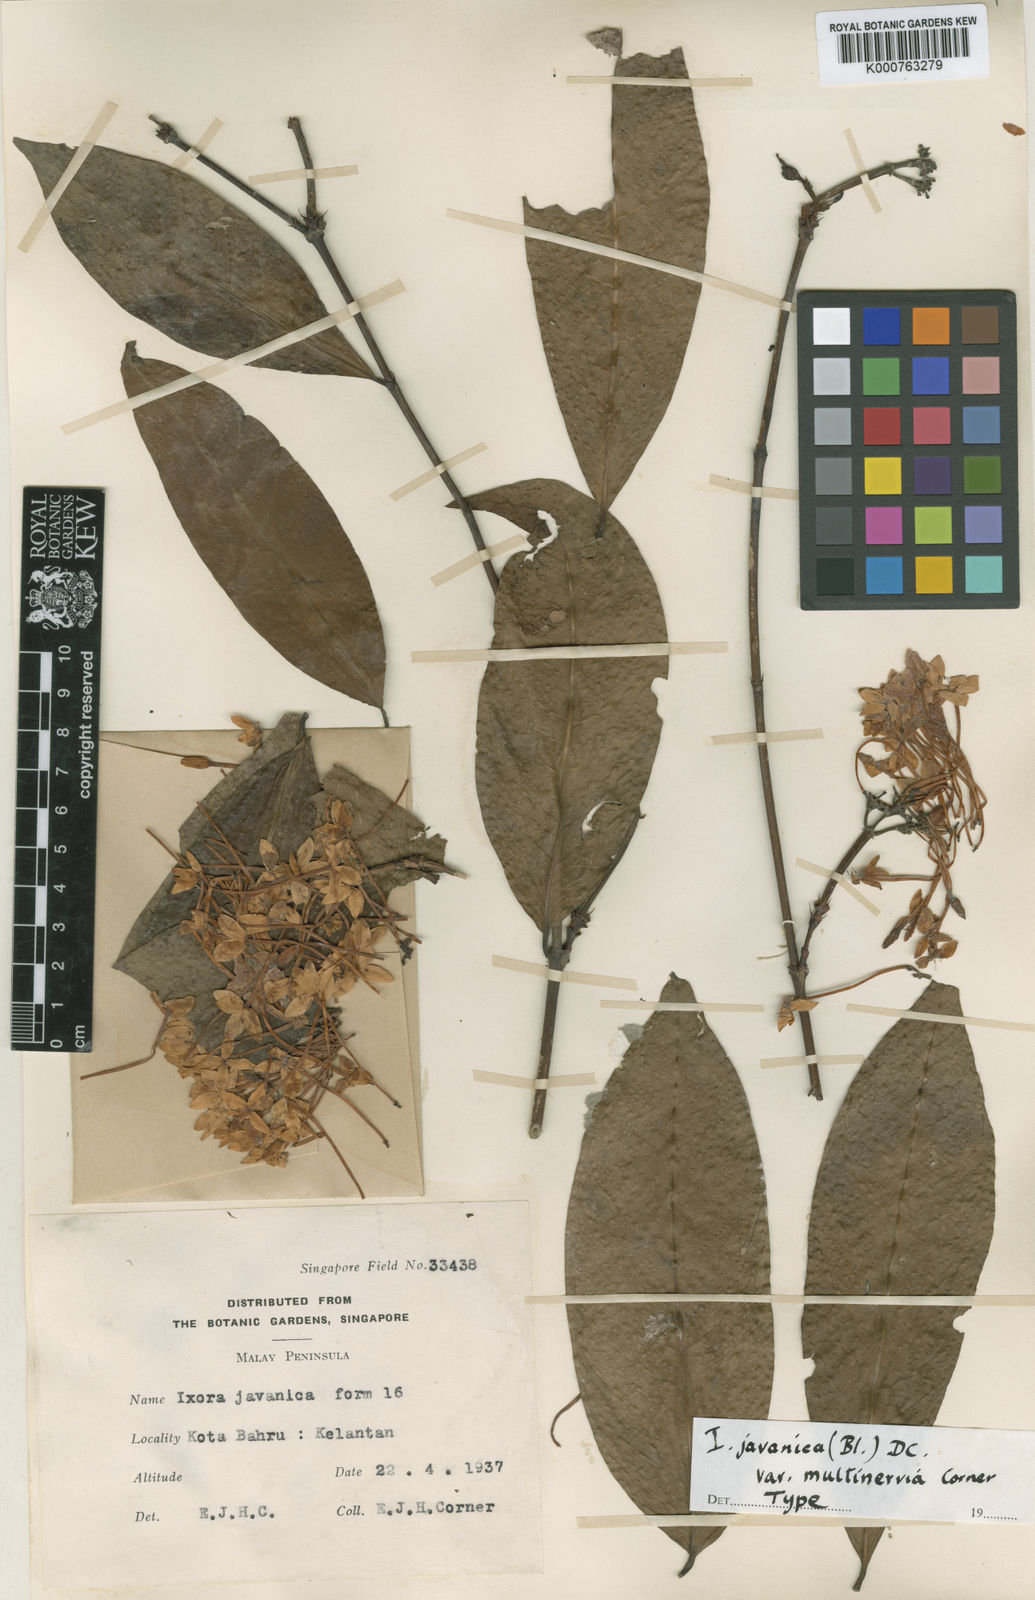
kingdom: Plantae
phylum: Tracheophyta
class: Magnoliopsida
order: Gentianales
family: Rubiaceae
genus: Ixora
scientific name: Ixora javanica
